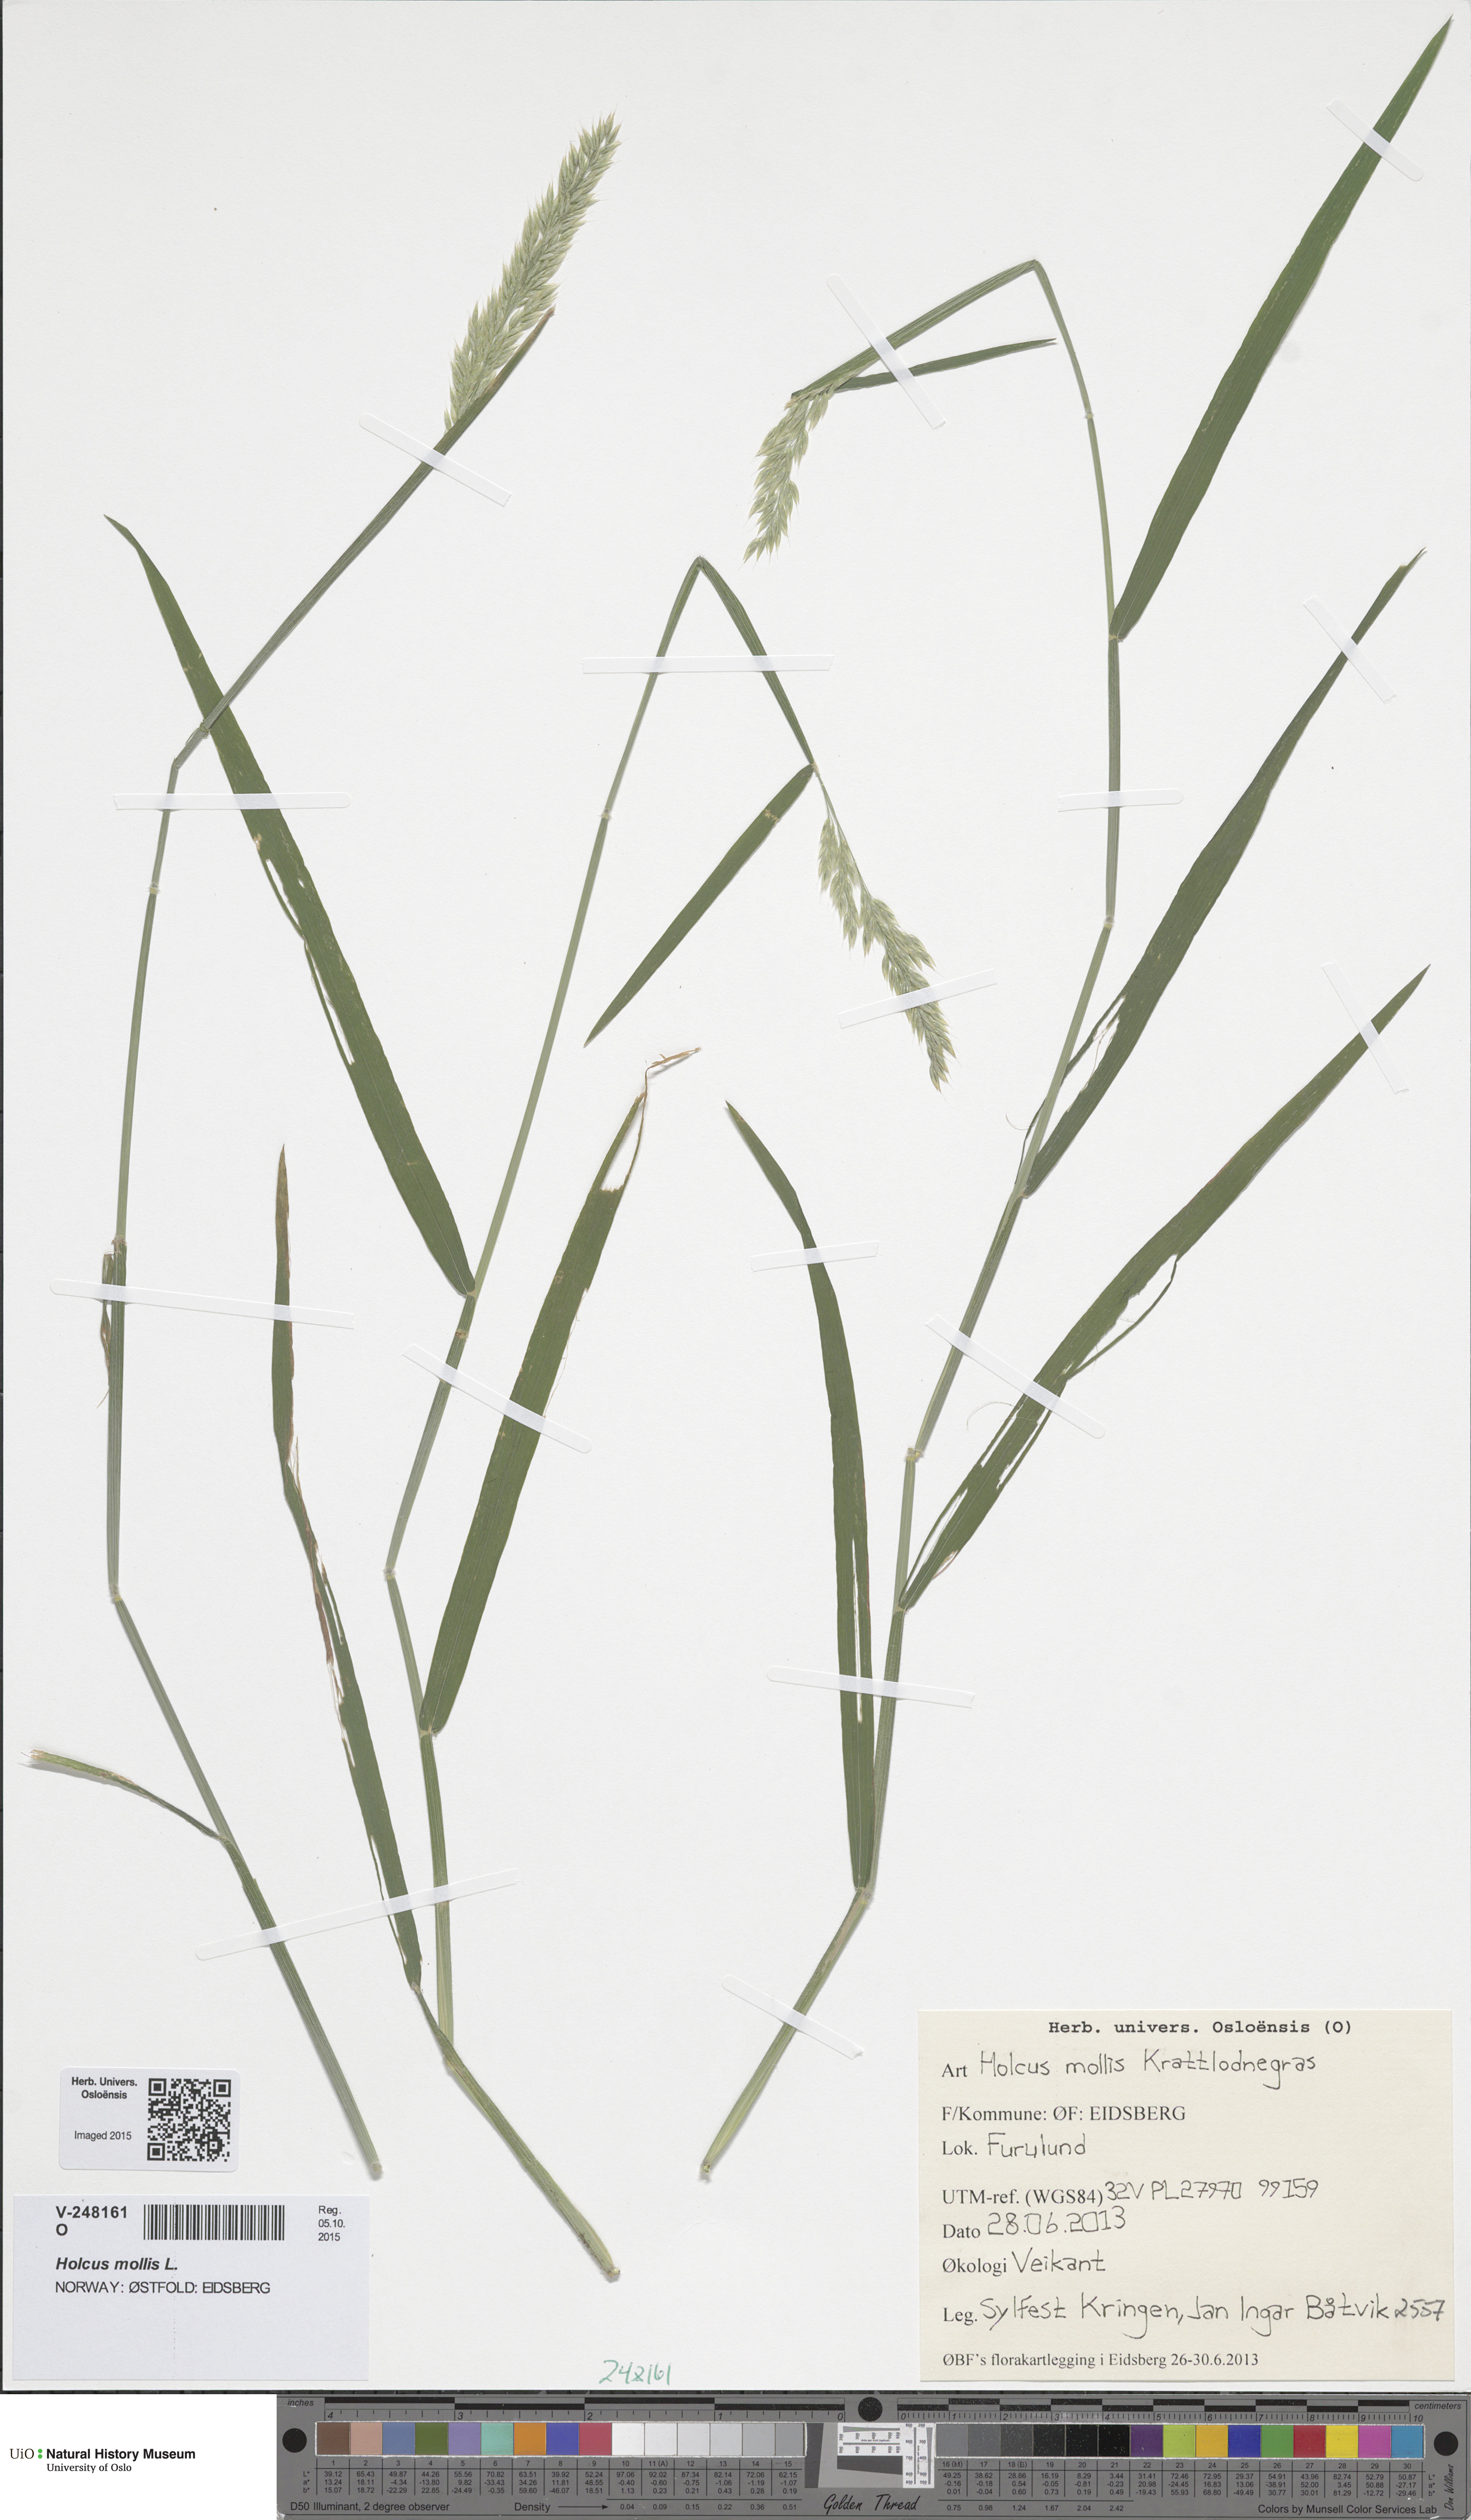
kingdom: Plantae
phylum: Tracheophyta
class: Liliopsida
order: Poales
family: Poaceae
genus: Holcus
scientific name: Holcus mollis
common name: Creeping velvetgrass
